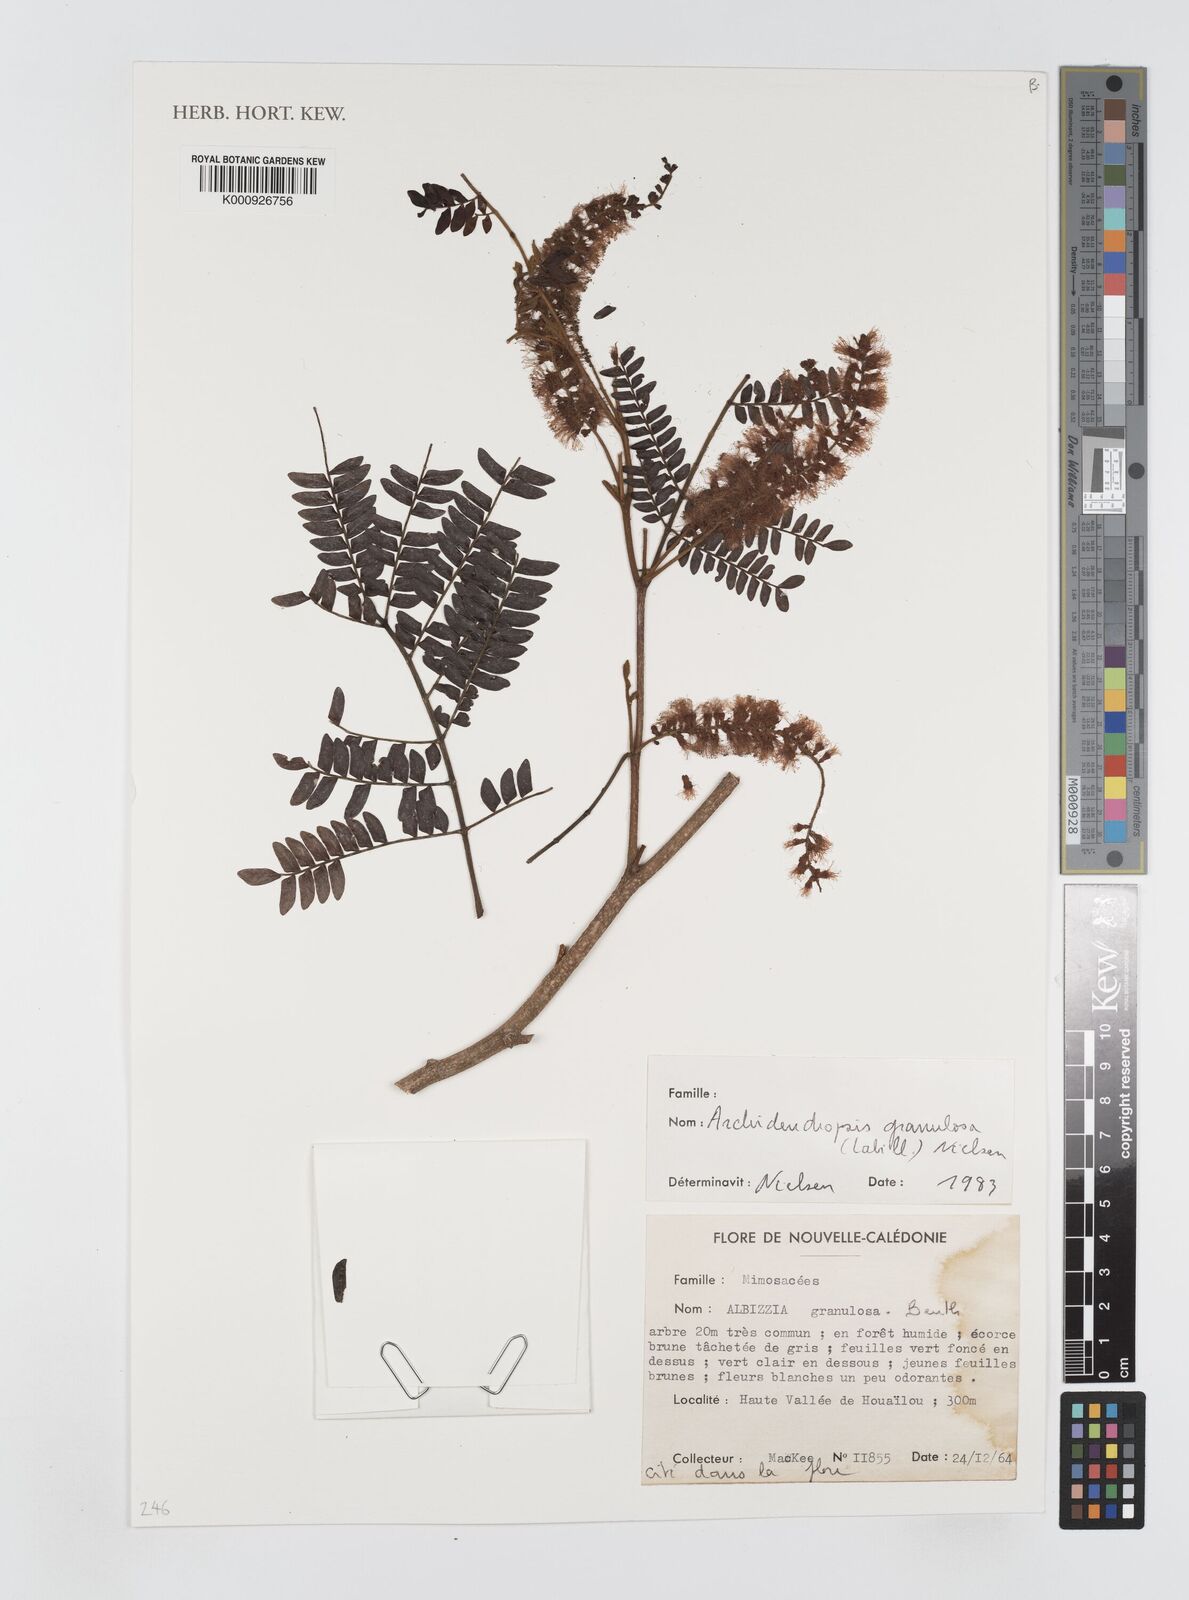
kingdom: Plantae
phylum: Tracheophyta
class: Magnoliopsida
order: Fabales
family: Fabaceae
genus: Archidendropsis
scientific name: Archidendropsis granulosa
